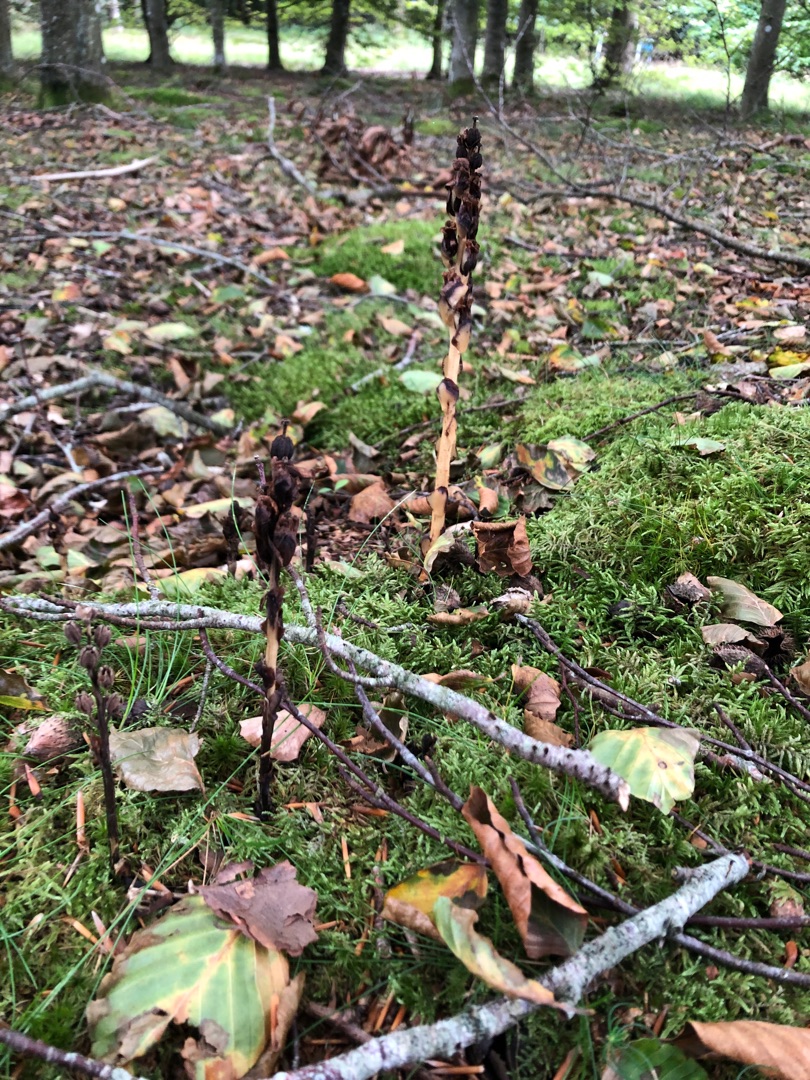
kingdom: Plantae
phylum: Tracheophyta
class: Magnoliopsida
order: Ericales
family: Ericaceae
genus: Hypopitys
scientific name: Hypopitys monotropa
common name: Snylterod
